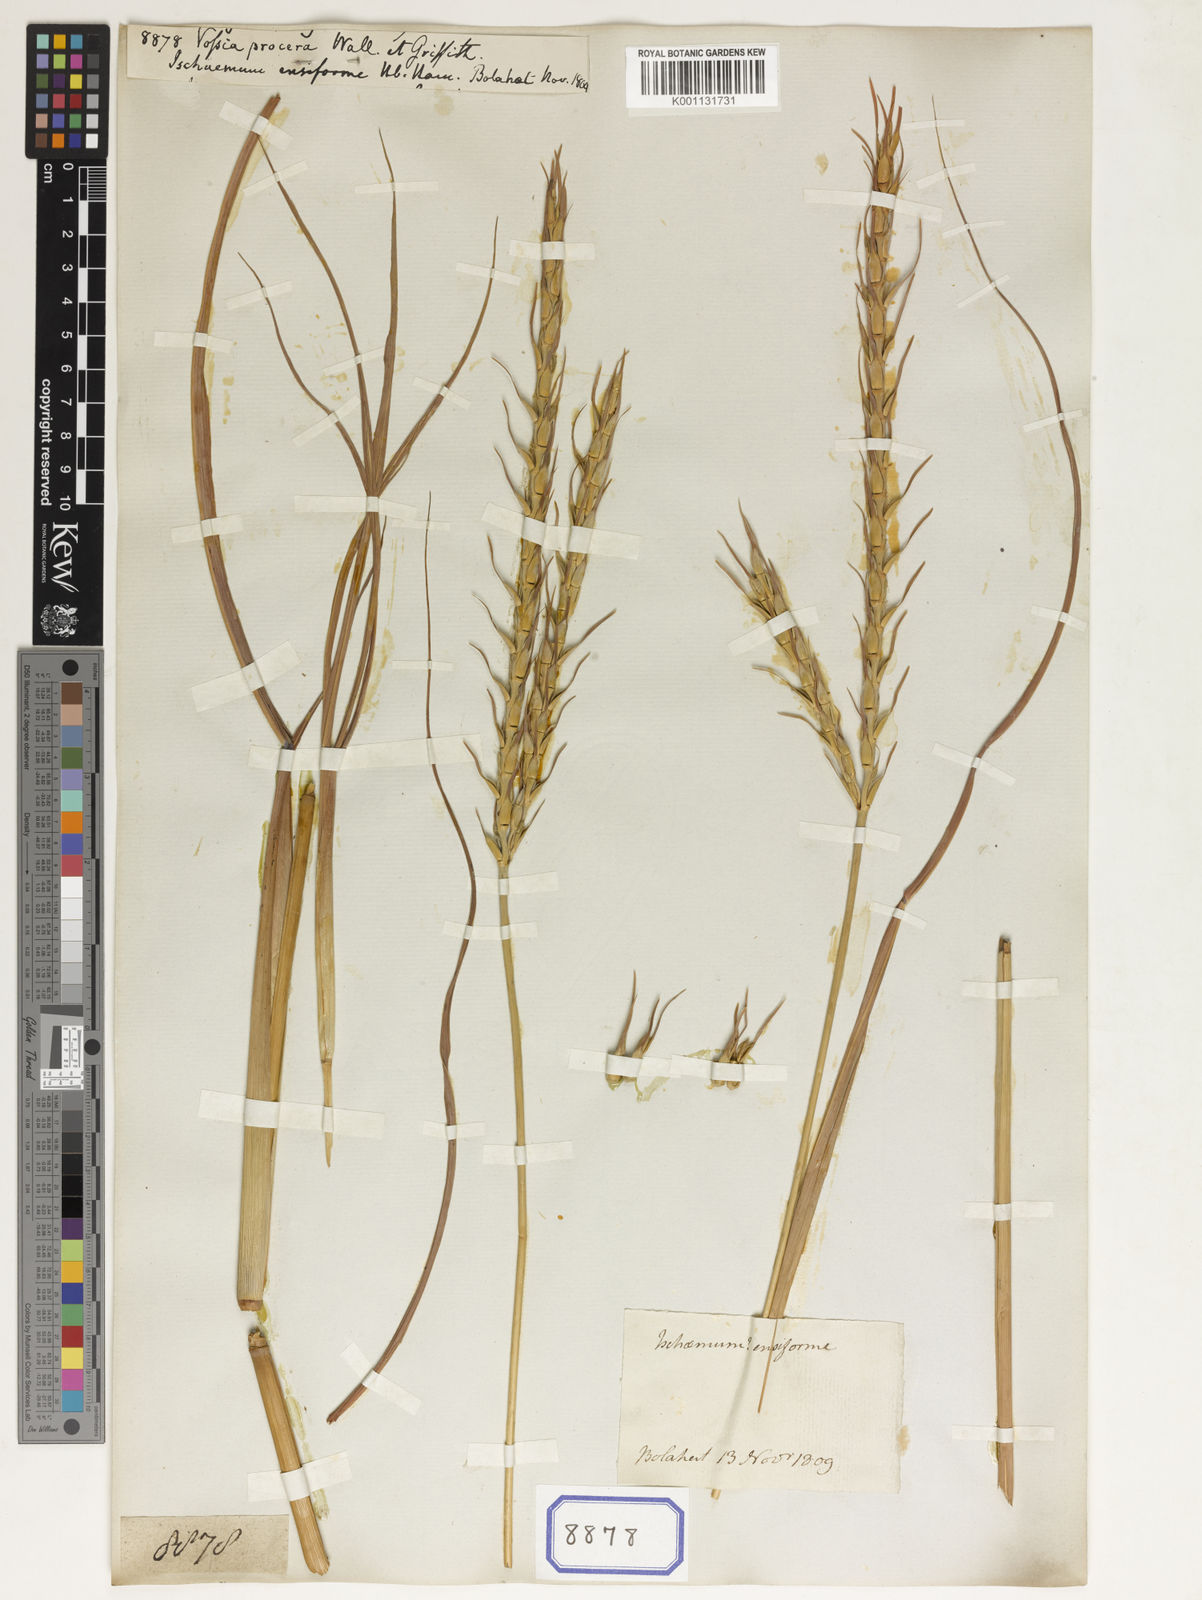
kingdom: Plantae
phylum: Tracheophyta
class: Liliopsida
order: Poales
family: Poaceae
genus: Vossia
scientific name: Vossia cuspidata
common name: Hippo grass
